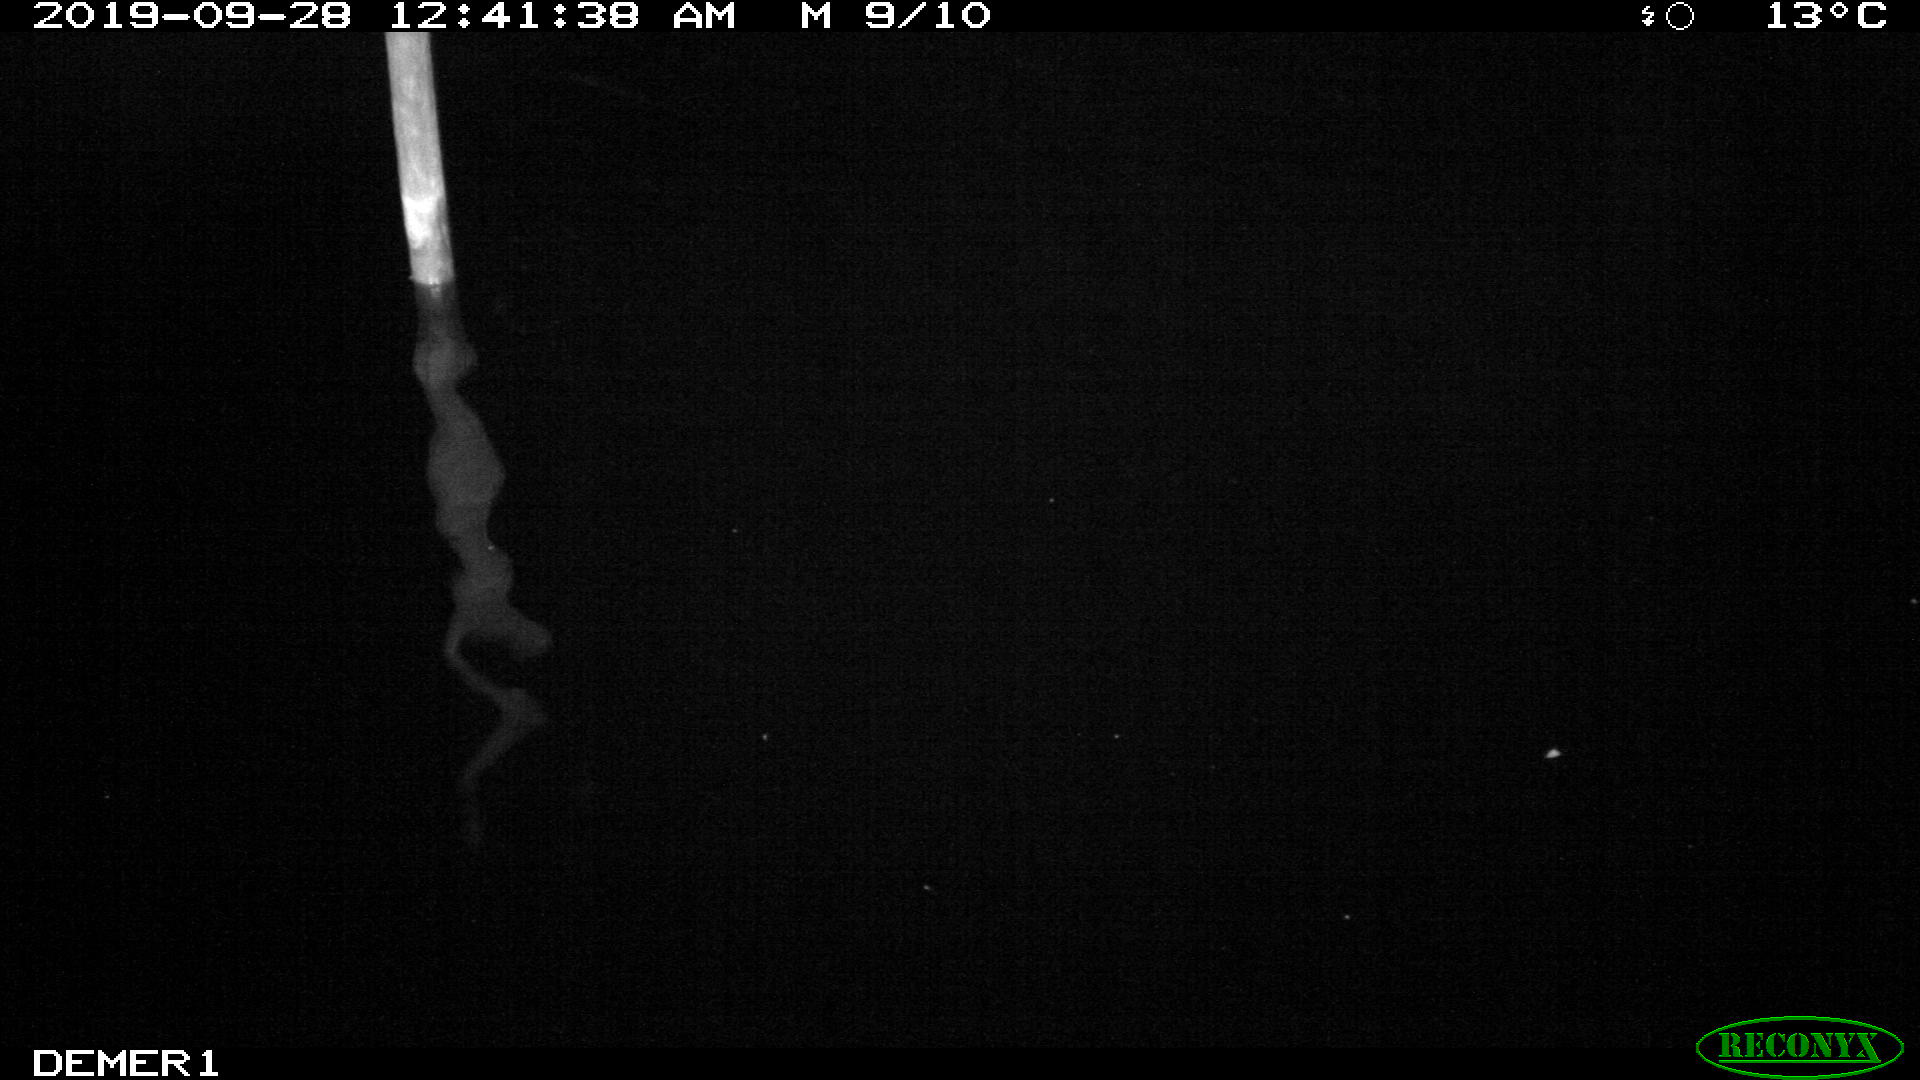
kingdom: Animalia
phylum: Chordata
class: Aves
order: Anseriformes
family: Anatidae
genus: Anas
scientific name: Anas platyrhynchos
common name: Mallard
